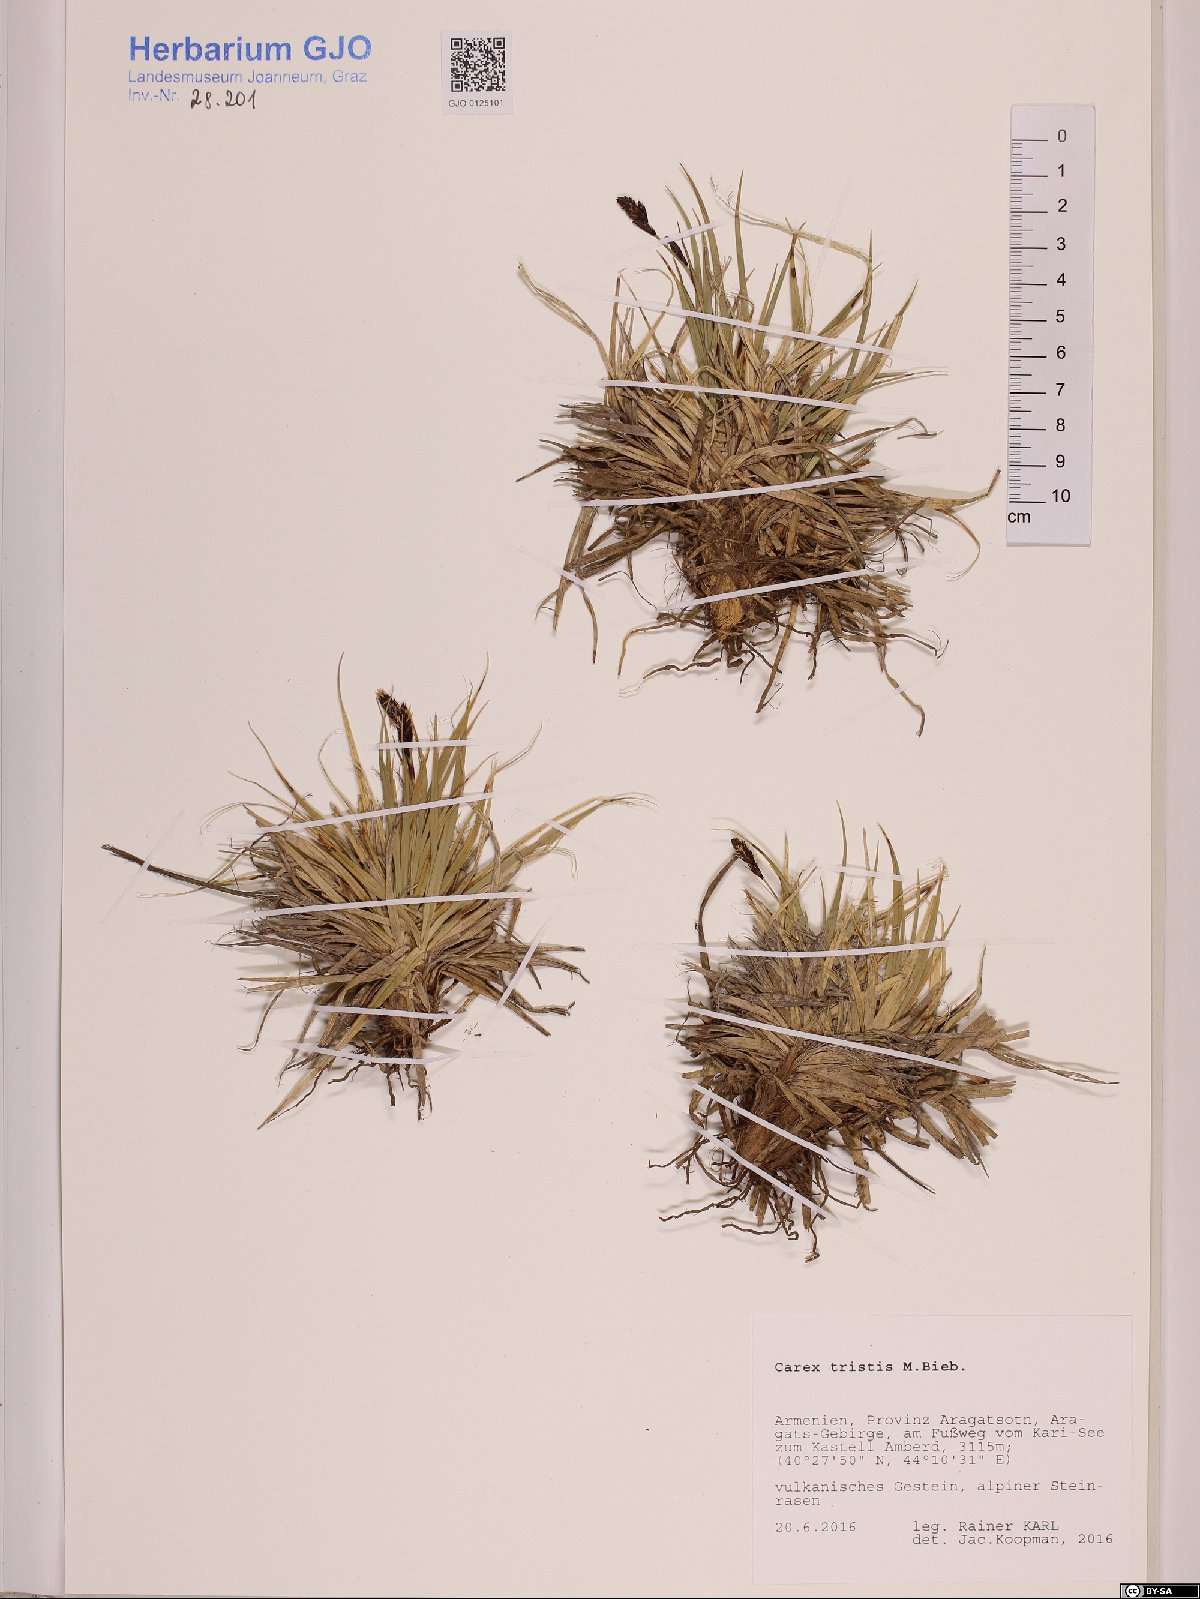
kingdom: Plantae
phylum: Tracheophyta
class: Liliopsida
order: Poales
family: Cyperaceae
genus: Carex
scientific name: Carex tristis
